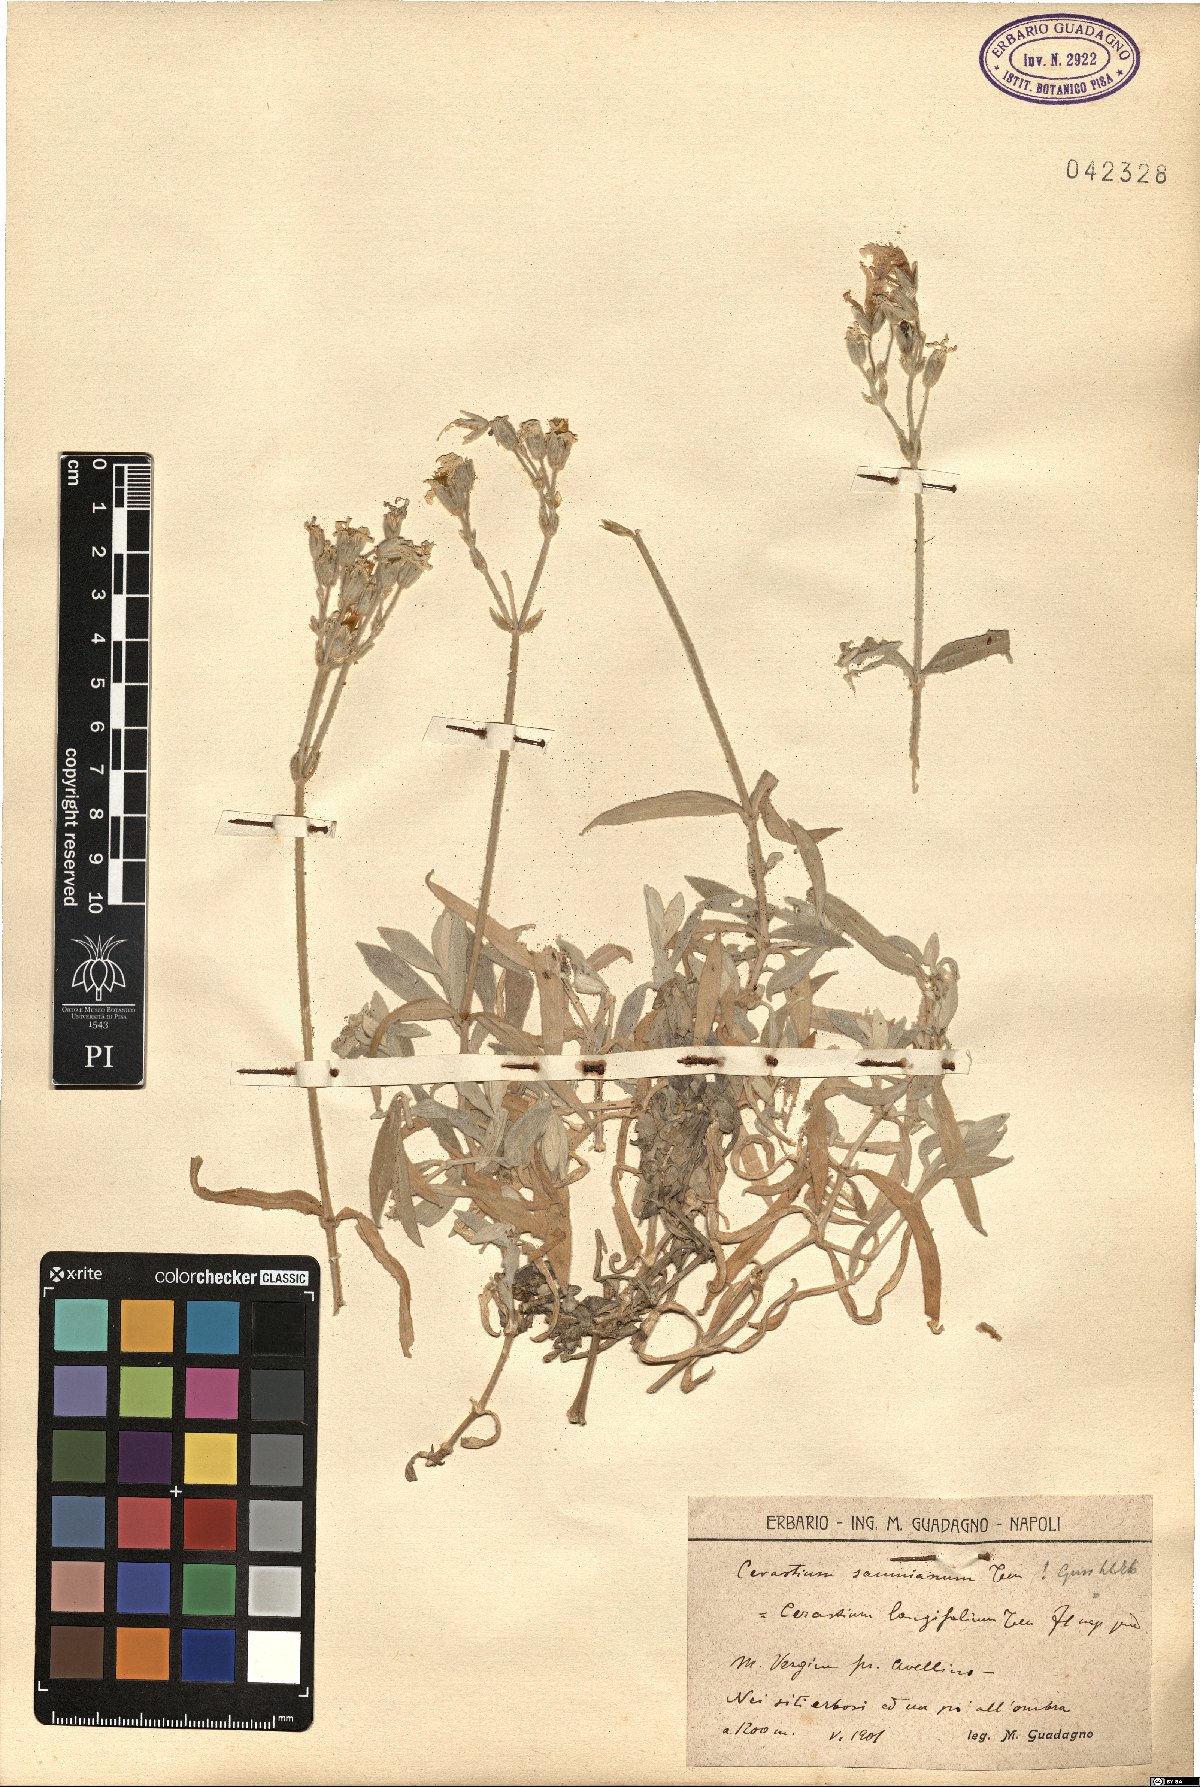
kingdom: Plantae
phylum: Tracheophyta
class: Magnoliopsida
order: Caryophyllales
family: Caryophyllaceae
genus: Cerastium
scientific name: Cerastium tomentosum
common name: Snow-in-summer
